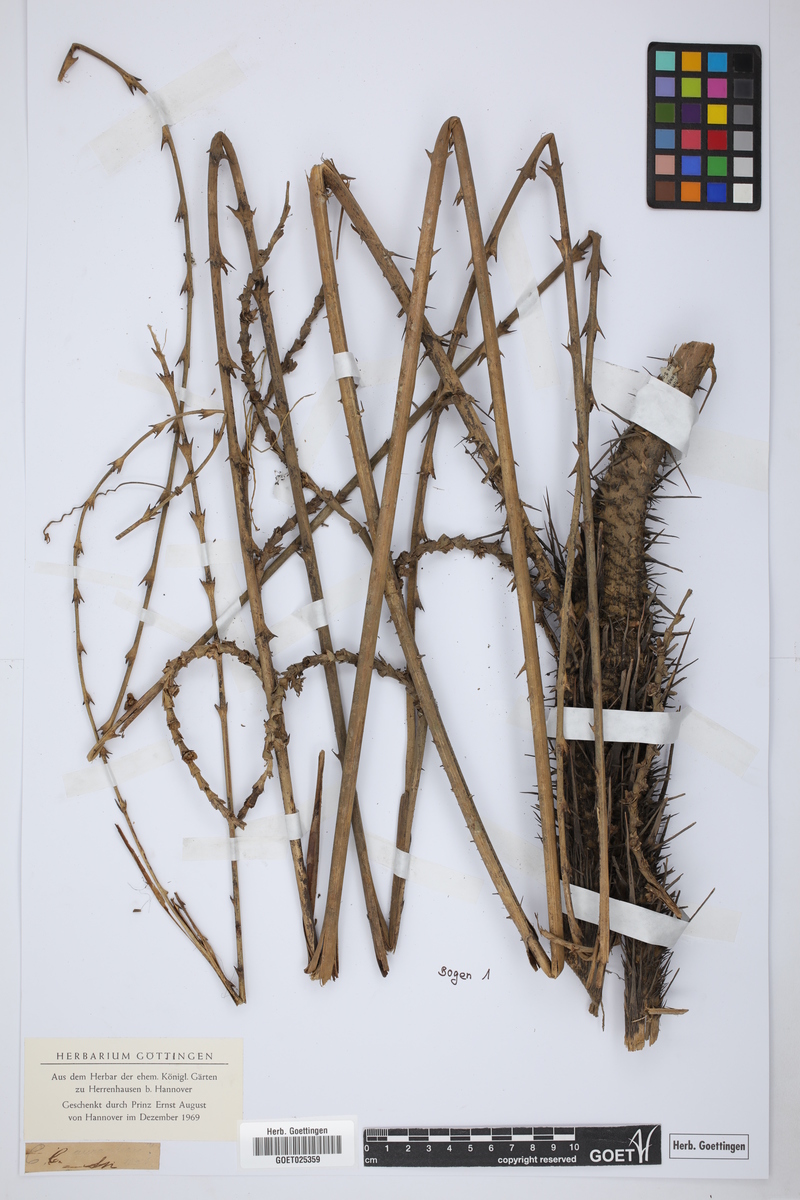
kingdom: Plantae
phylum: Tracheophyta
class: Liliopsida
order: Arecales
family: Arecaceae
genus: Chamaedorea
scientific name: Chamaedorea sartorii
